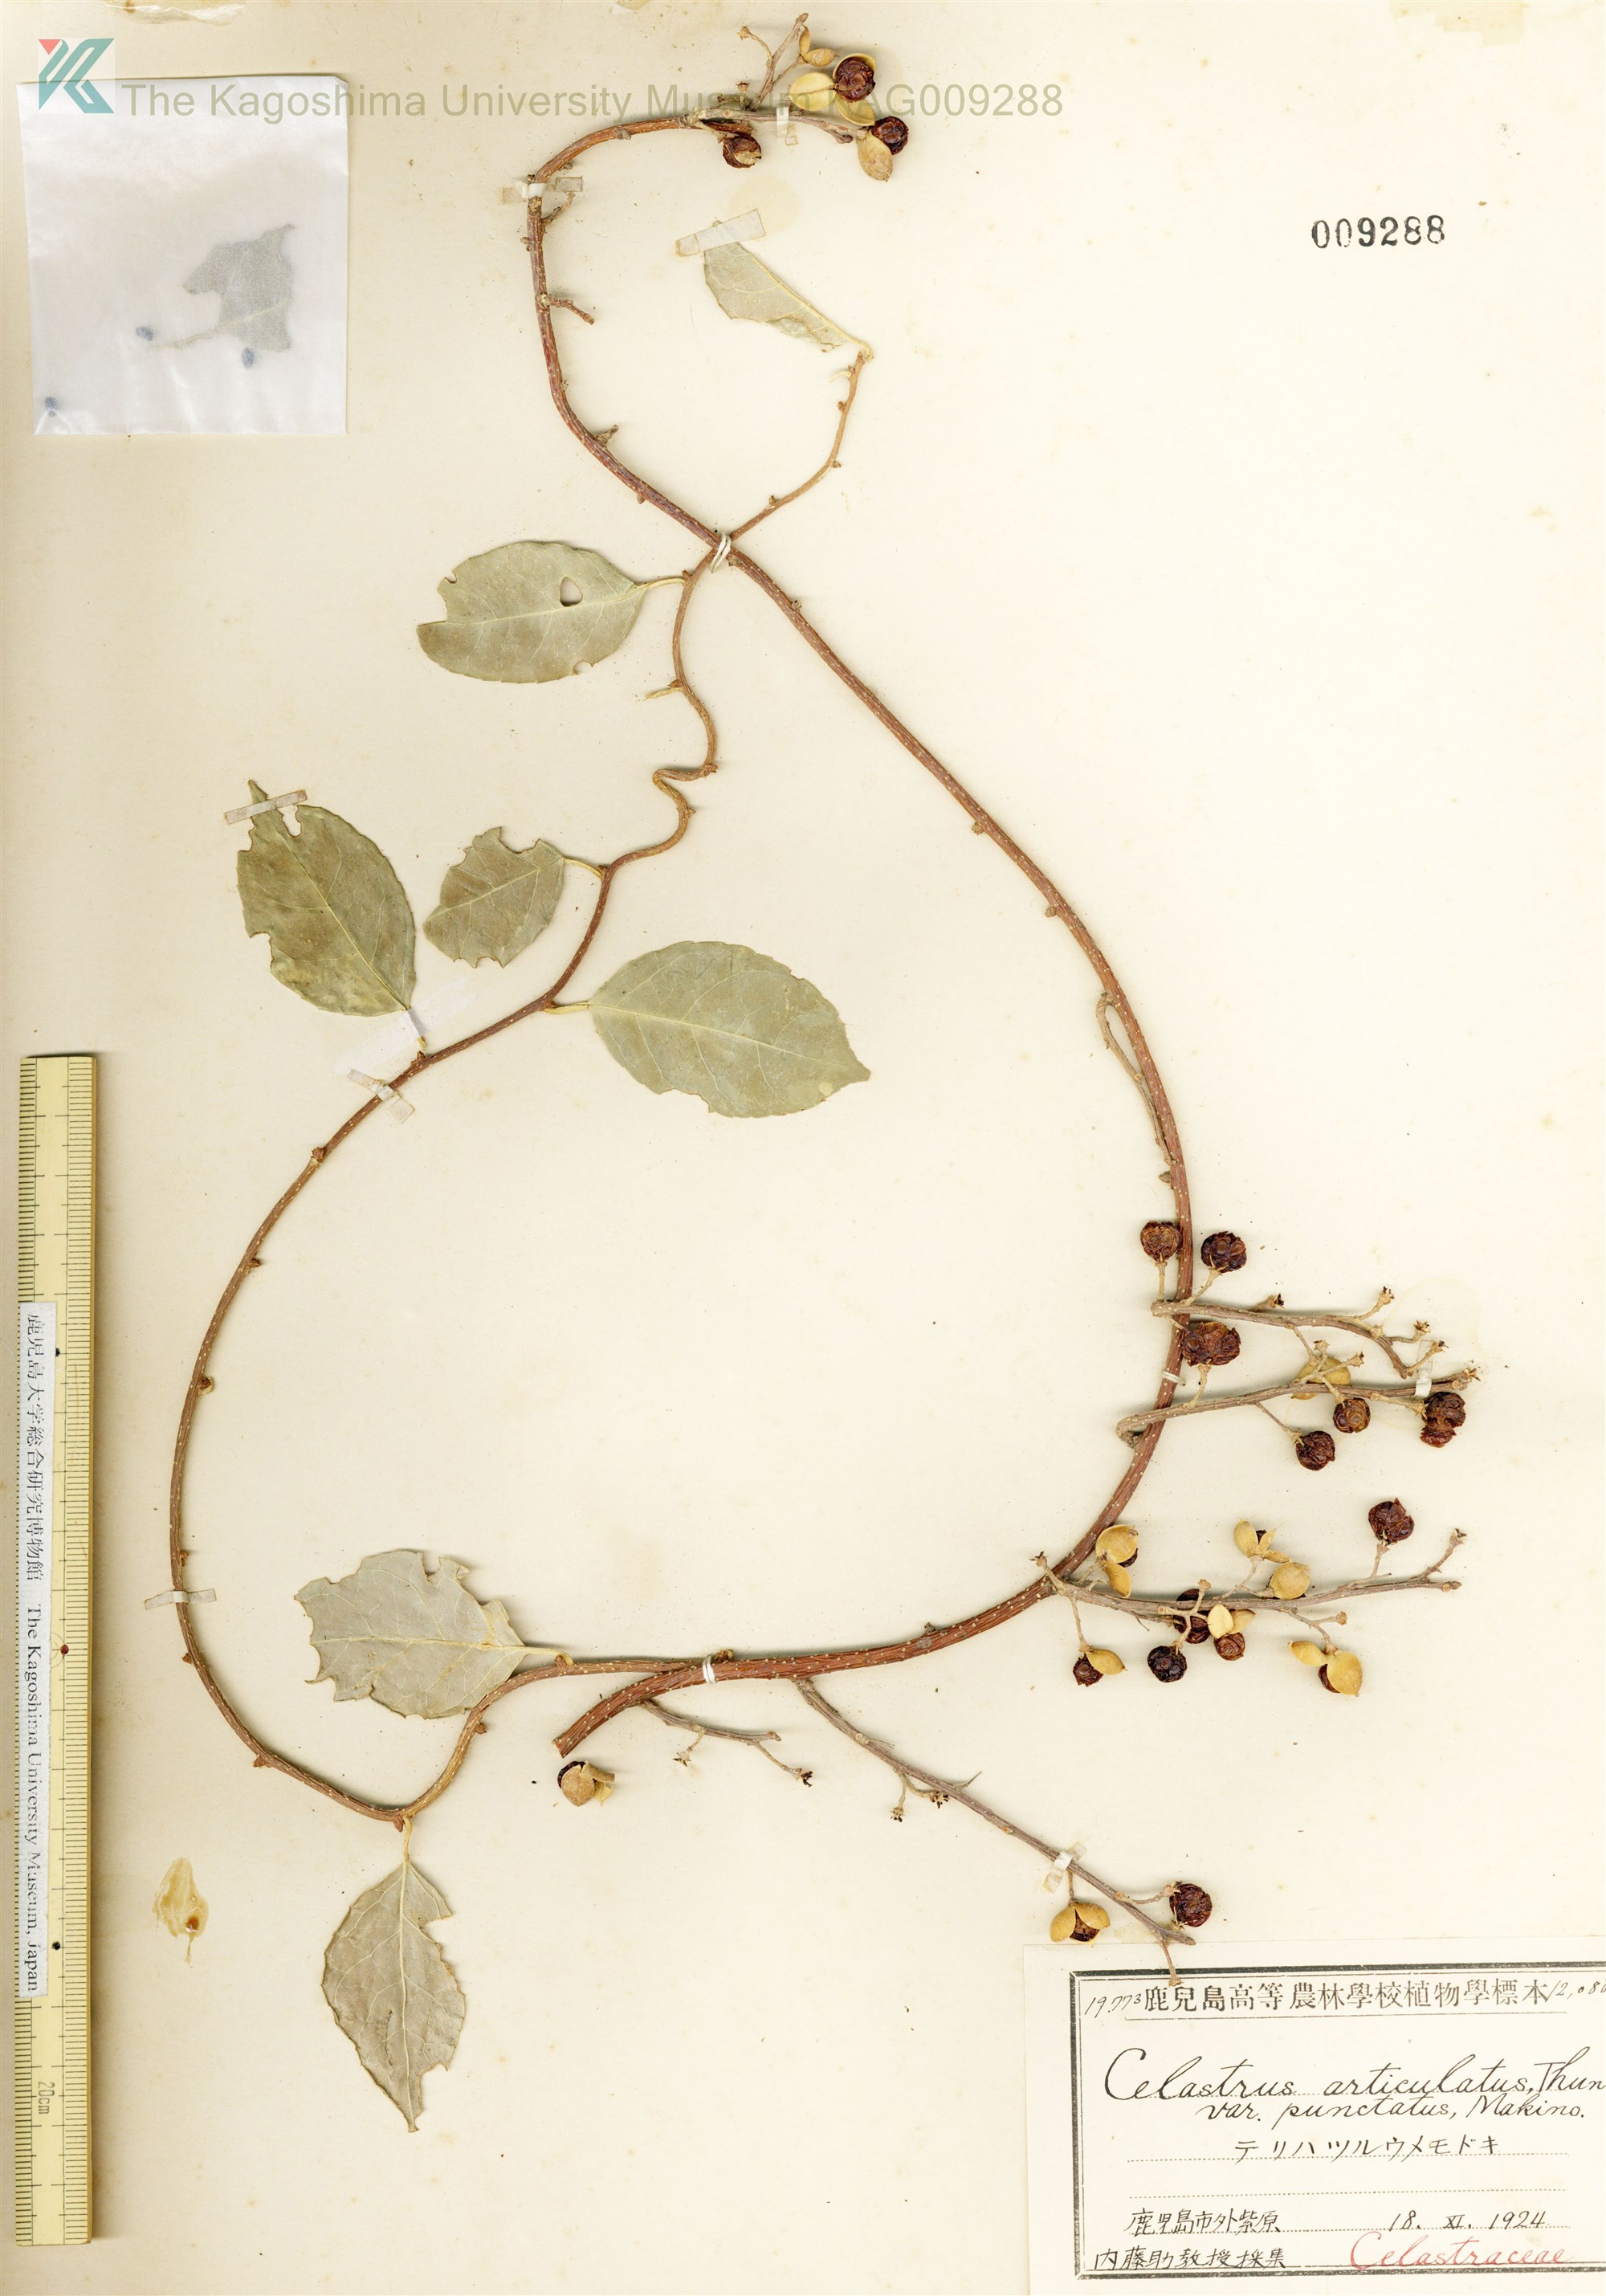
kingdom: Plantae
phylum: Tracheophyta
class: Magnoliopsida
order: Celastrales
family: Celastraceae
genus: Celastrus
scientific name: Celastrus punctatus
